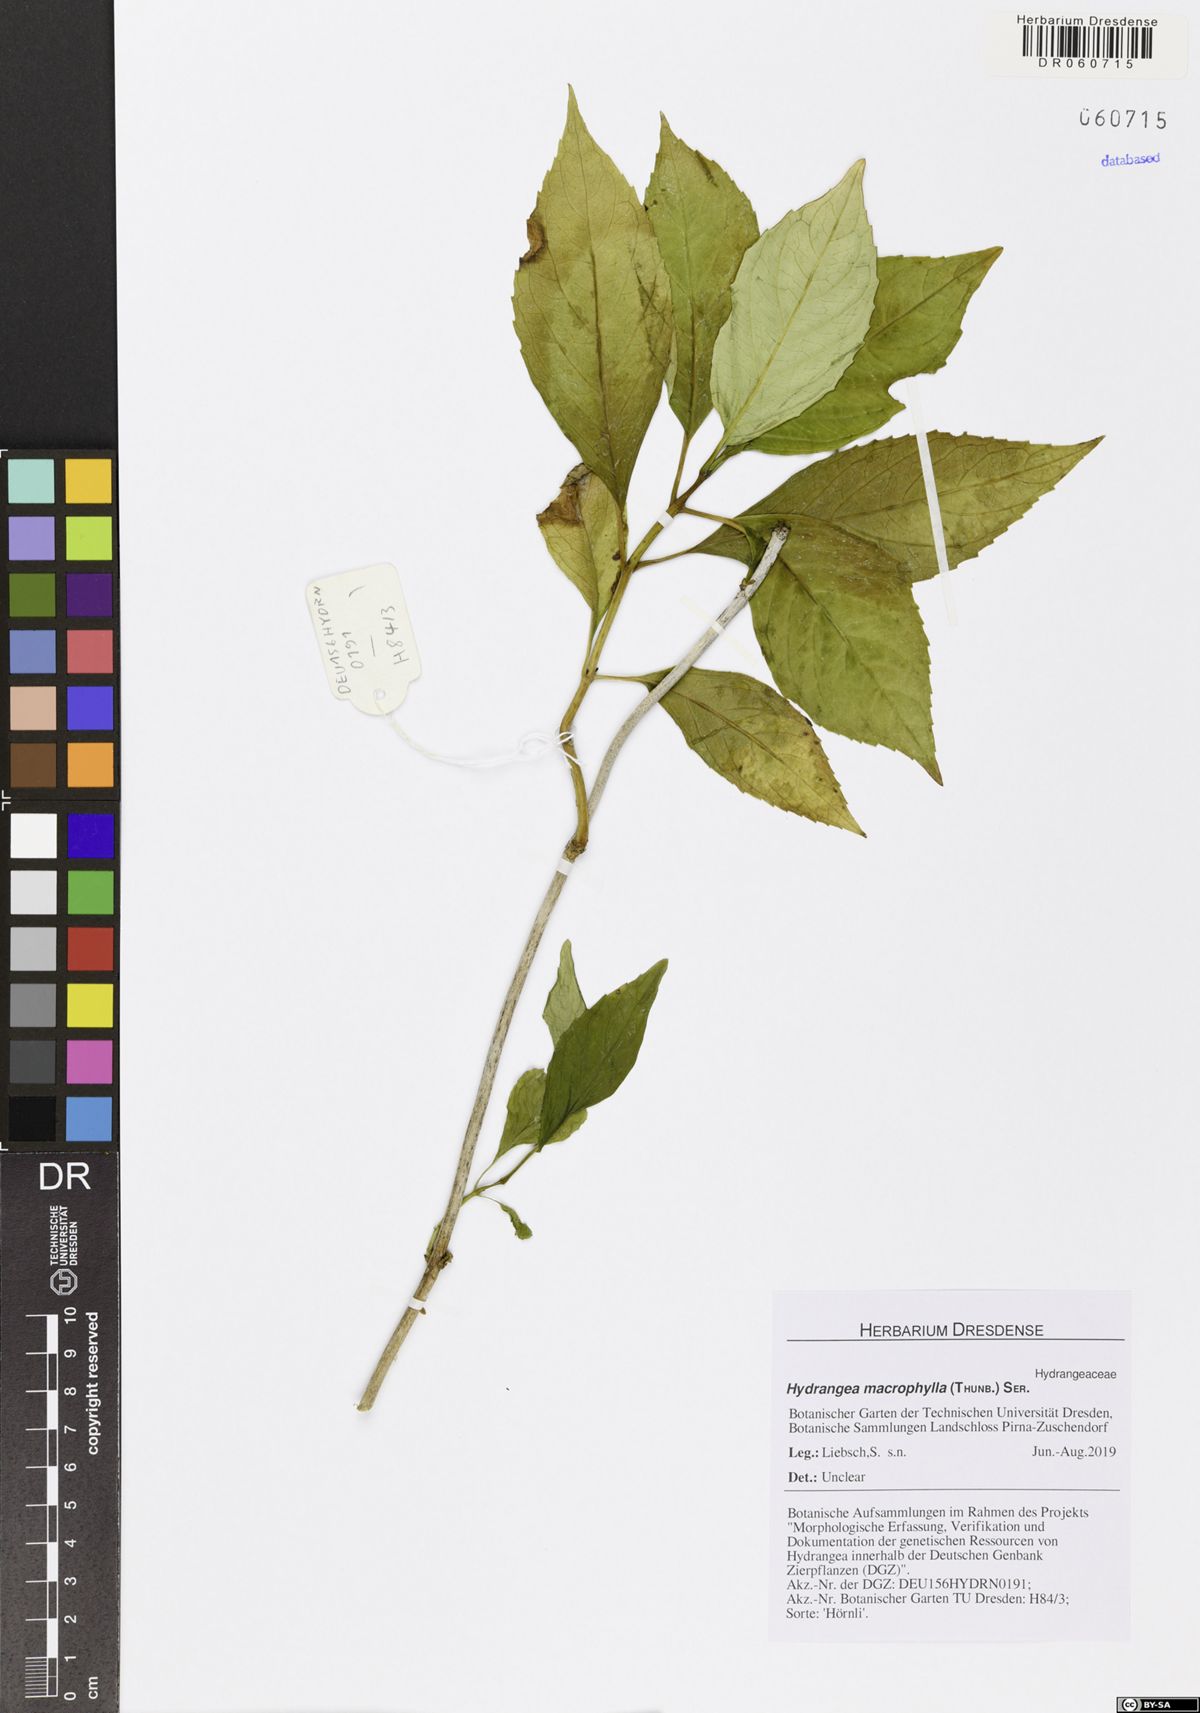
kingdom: Plantae
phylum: Tracheophyta
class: Magnoliopsida
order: Cornales
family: Hydrangeaceae
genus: Hydrangea
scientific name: Hydrangea macrophylla
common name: Hydrangea
